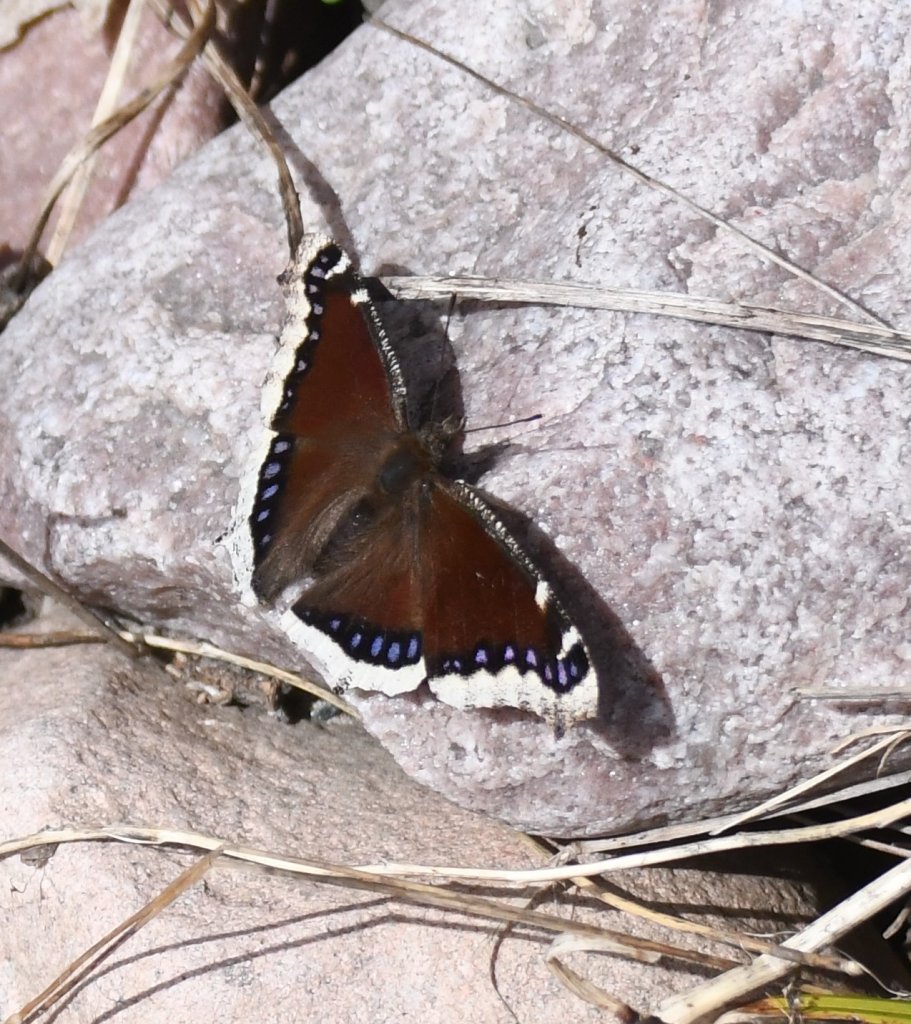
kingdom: Animalia
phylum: Arthropoda
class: Insecta
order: Lepidoptera
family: Nymphalidae
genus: Nymphalis
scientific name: Nymphalis antiopa
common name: Mourning Cloak
